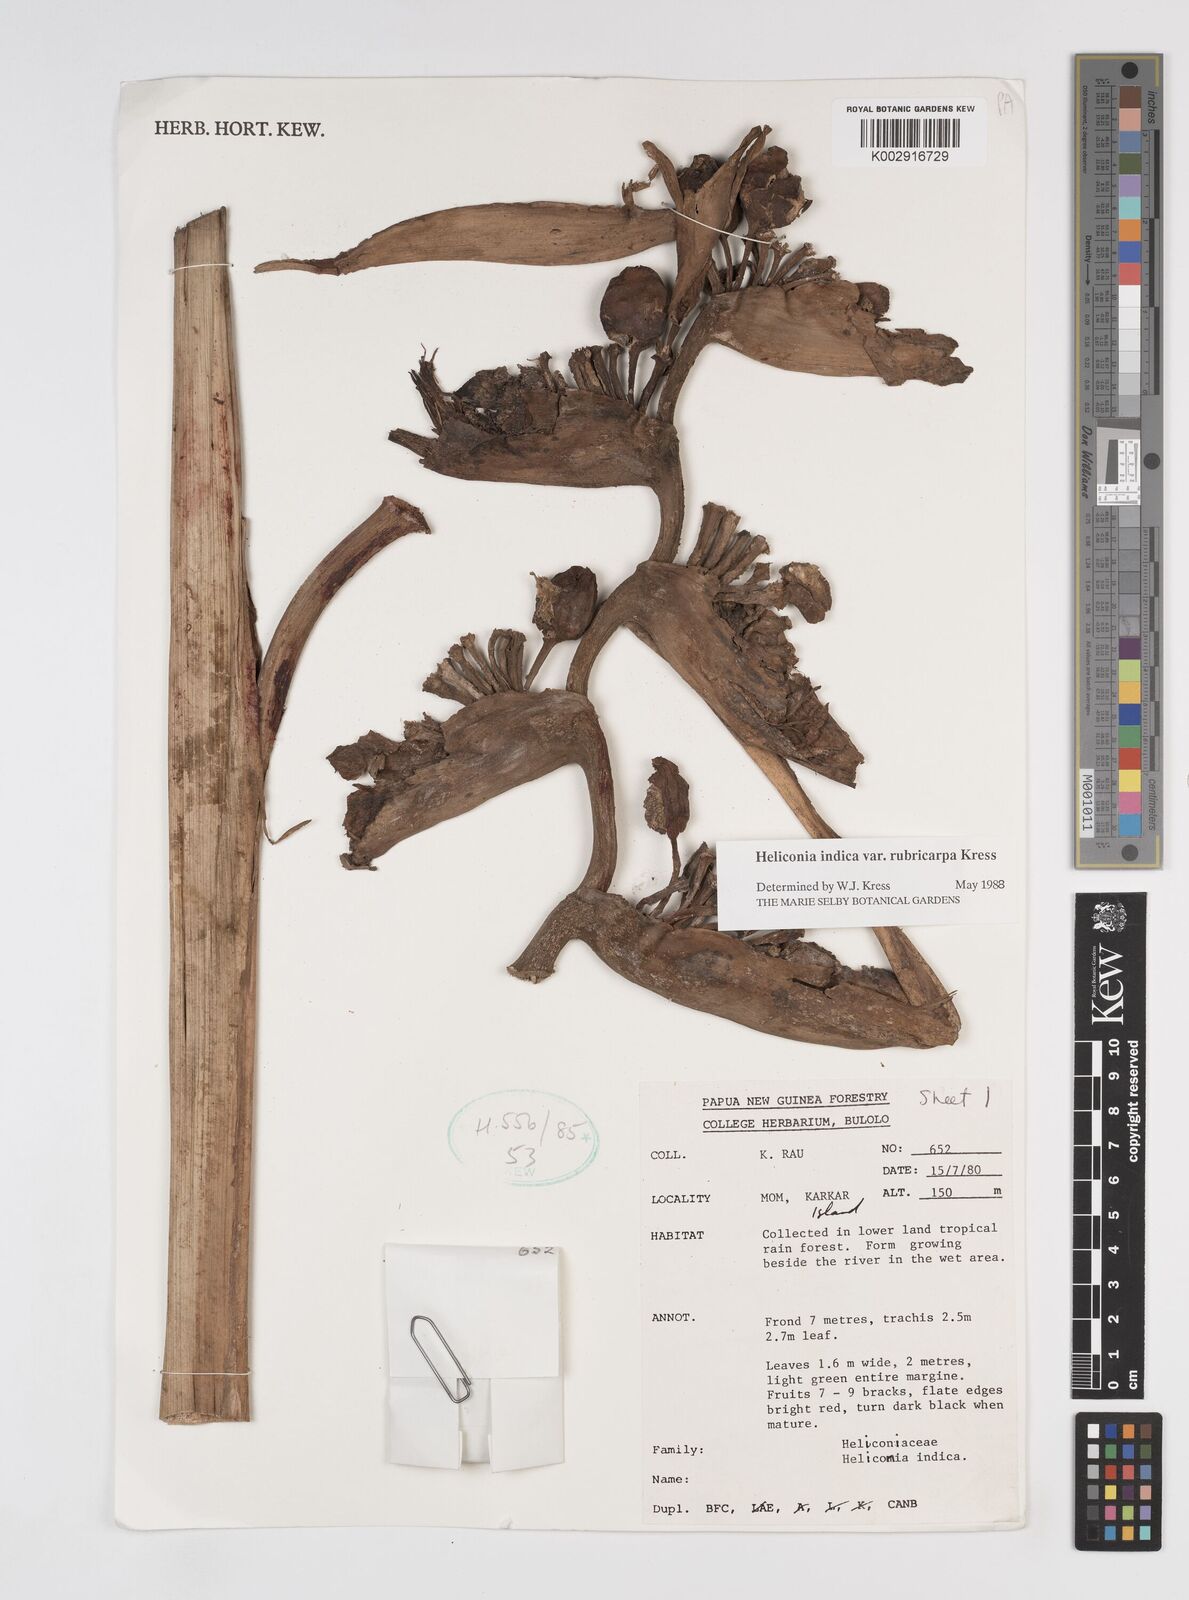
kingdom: Plantae
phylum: Tracheophyta
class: Liliopsida
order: Zingiberales
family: Heliconiaceae
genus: Heliconia
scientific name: Heliconia indica
